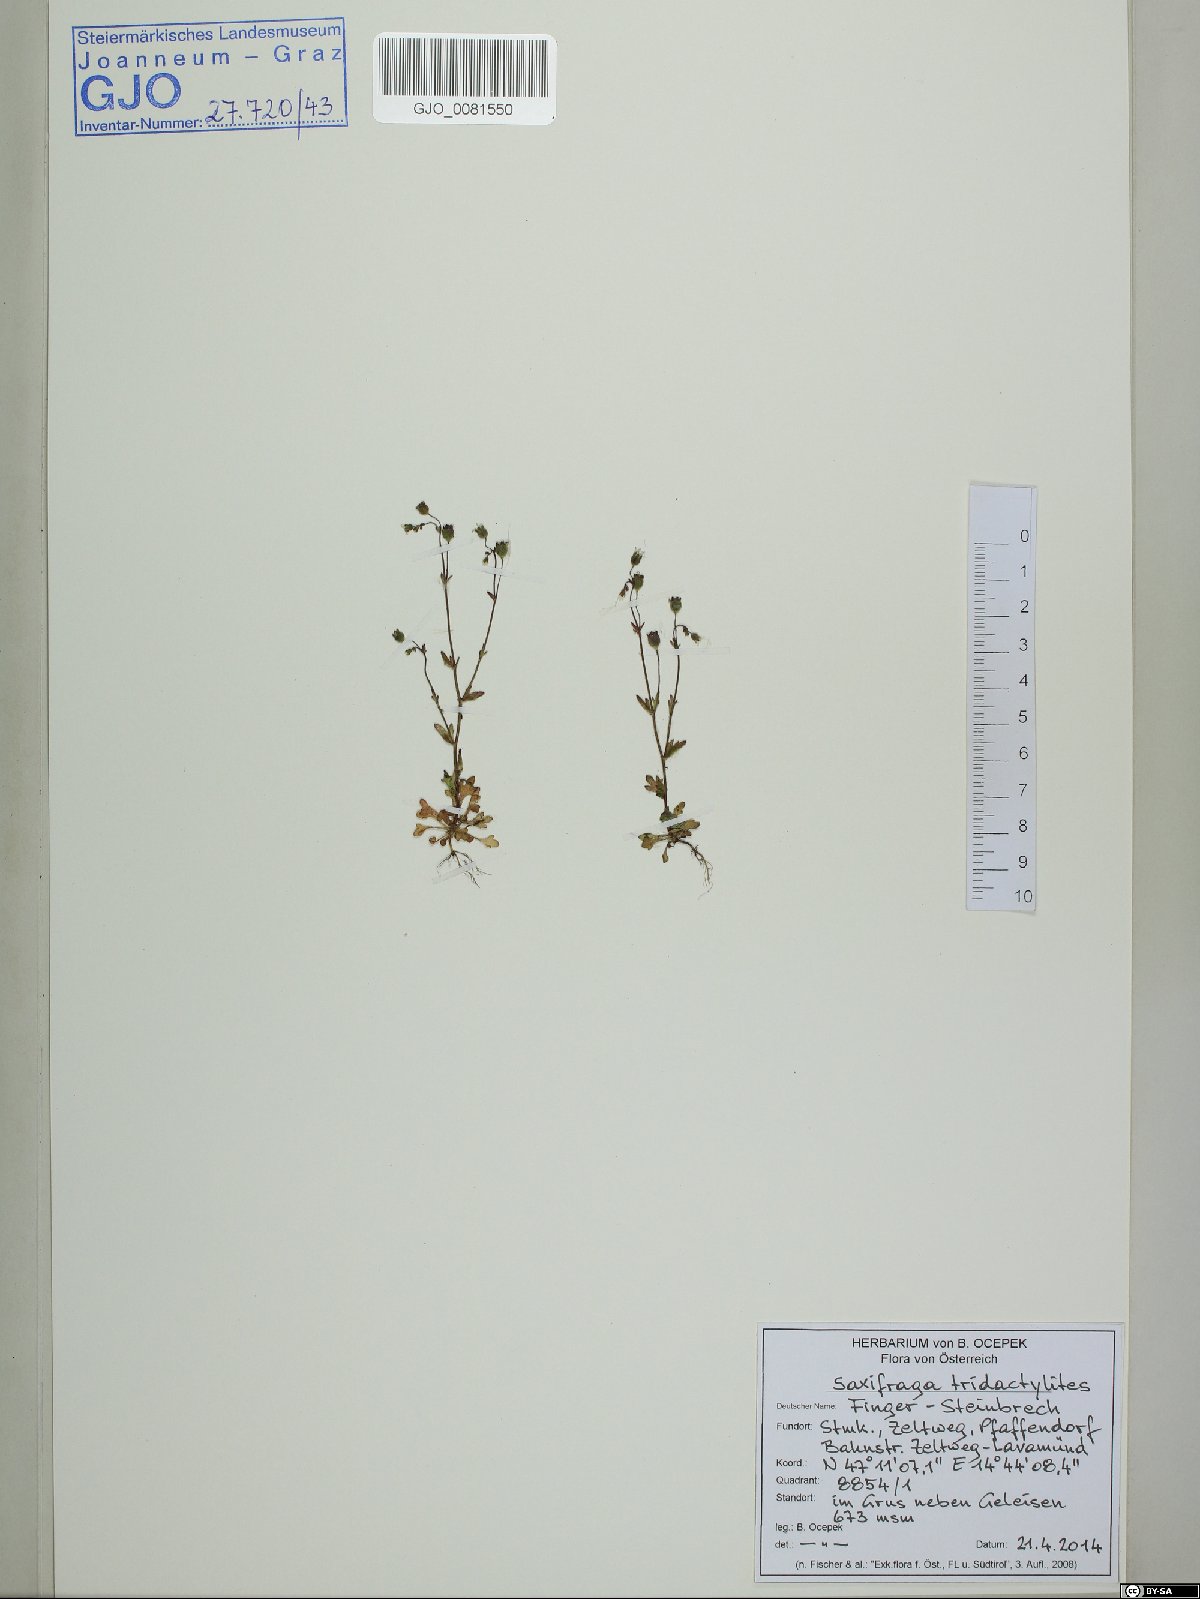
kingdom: Plantae
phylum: Tracheophyta
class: Magnoliopsida
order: Saxifragales
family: Saxifragaceae
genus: Saxifraga
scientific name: Saxifraga tridactylites
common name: Rue-leaved saxifrage
